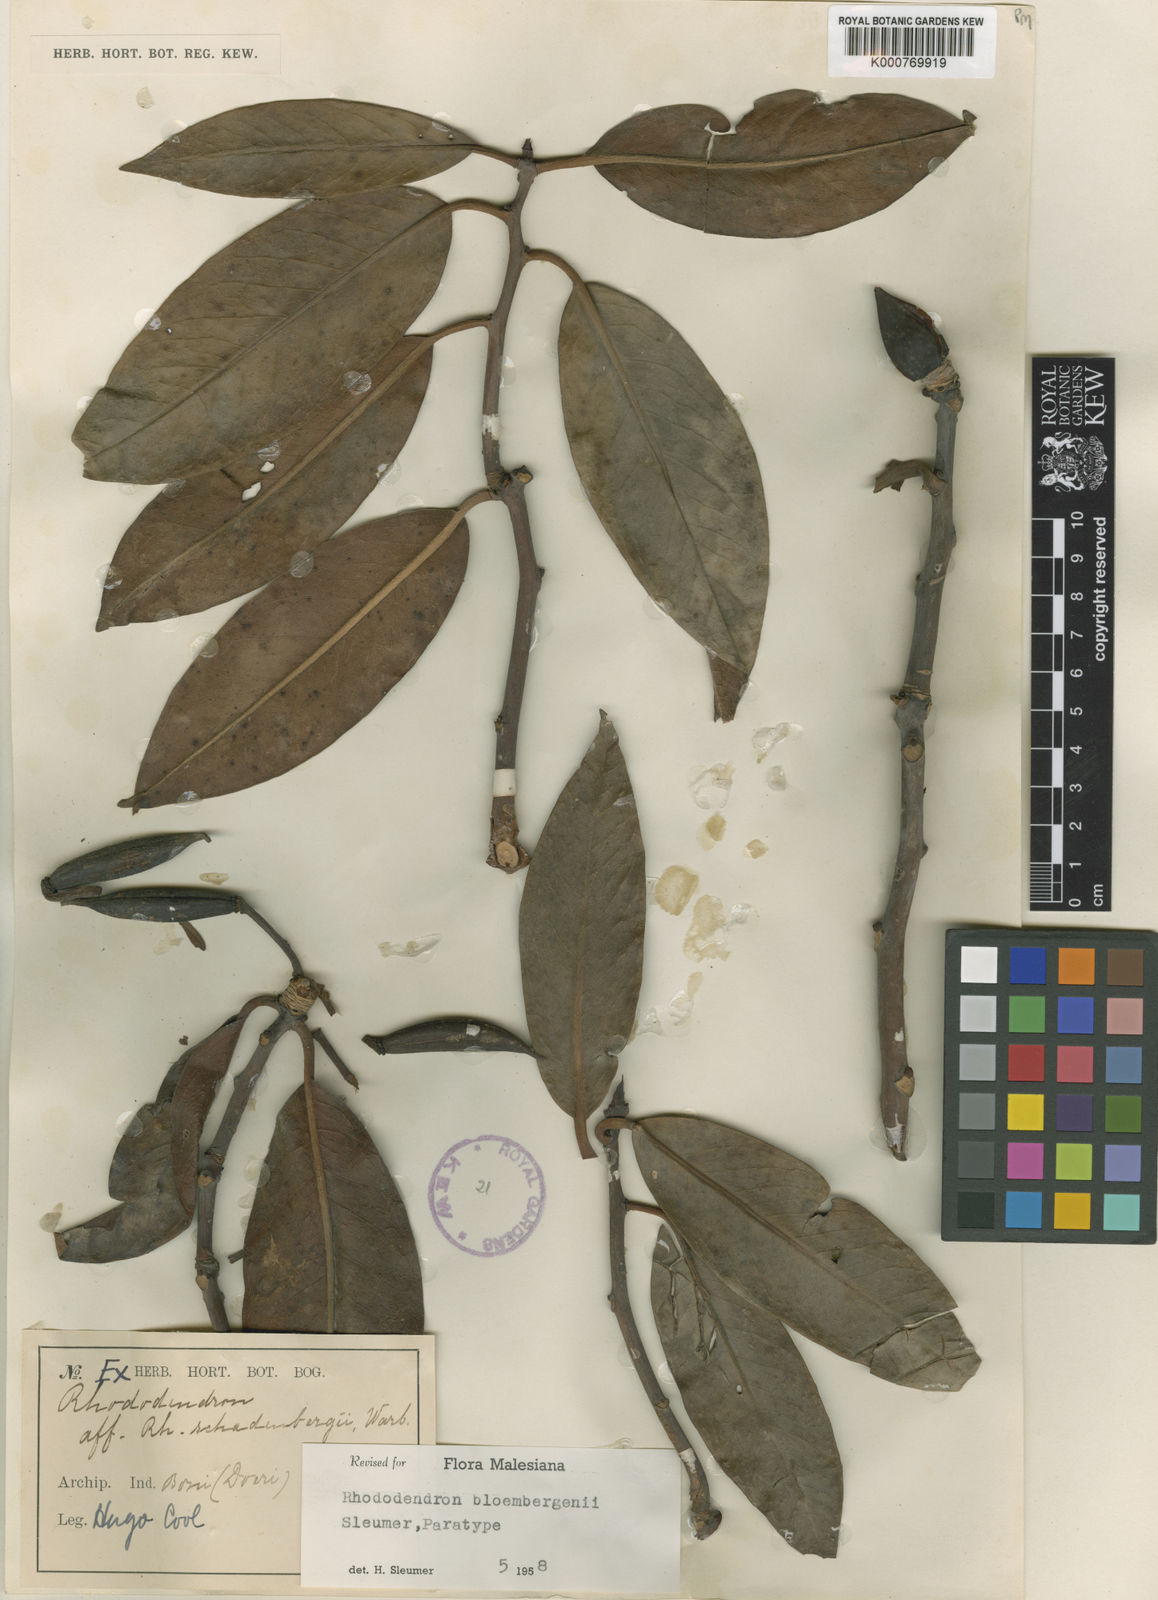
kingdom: Plantae
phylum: Tracheophyta
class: Magnoliopsida
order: Ericales
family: Ericaceae
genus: Rhododendron
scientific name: Rhododendron bloembergenii
